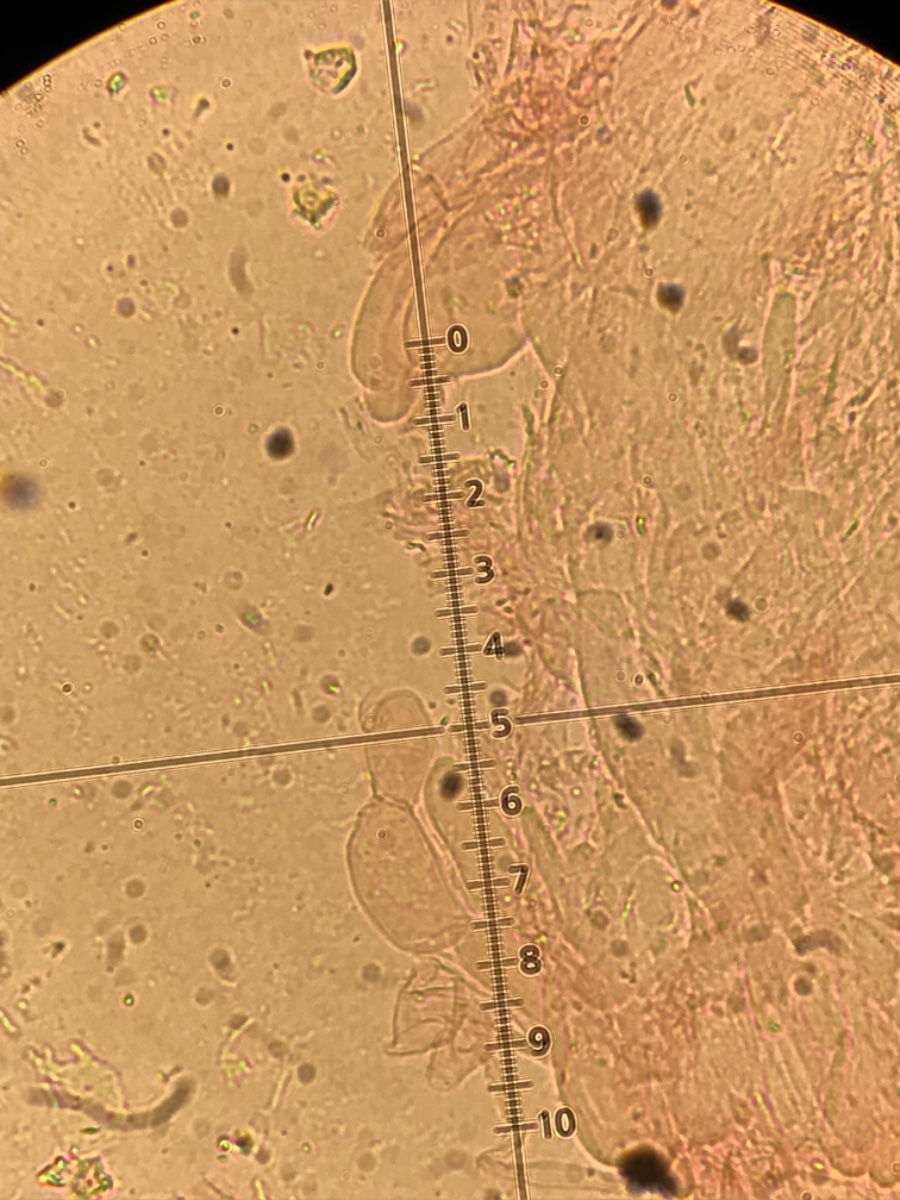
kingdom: Fungi
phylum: Basidiomycota
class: Agaricomycetes
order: Agaricales
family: Clavariaceae
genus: Clavaria
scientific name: Clavaria flavipes
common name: strågul køllesvamp
